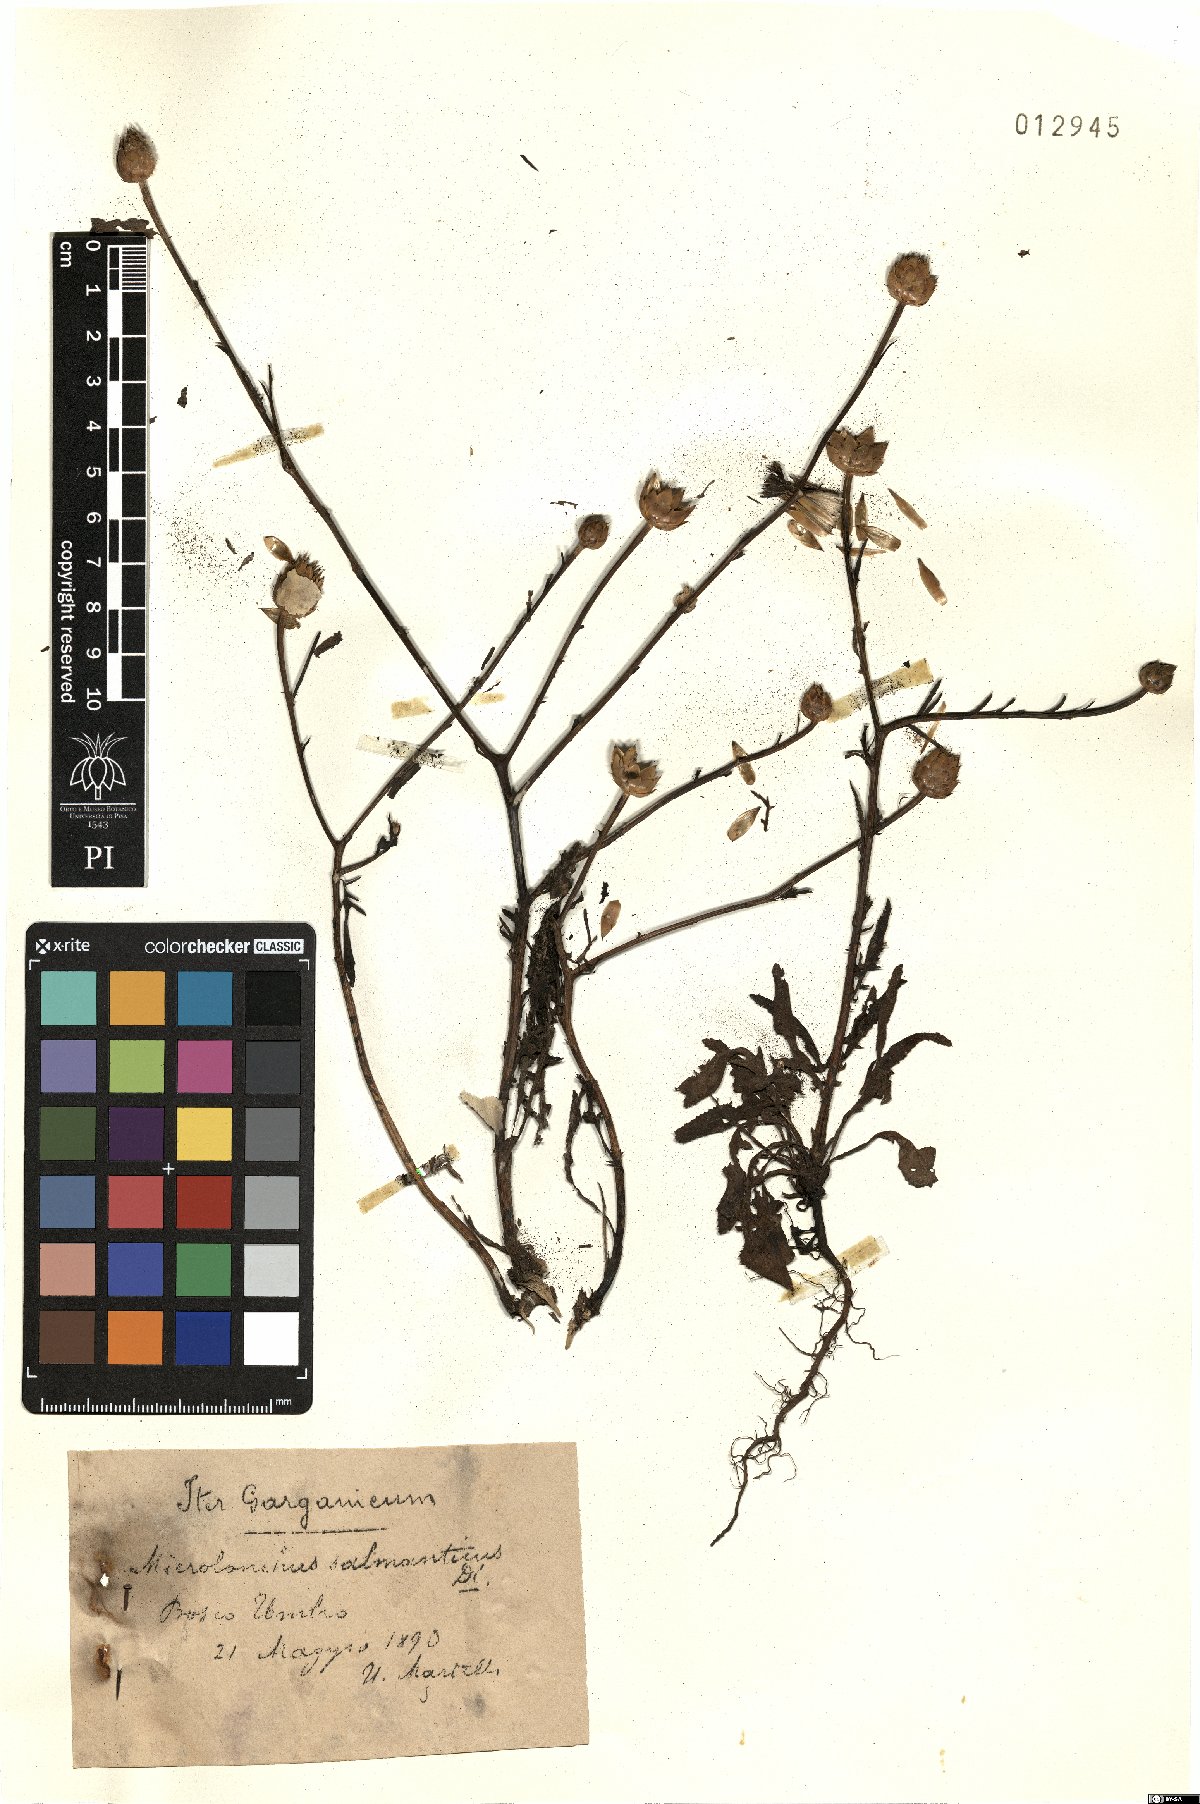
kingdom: Plantae
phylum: Tracheophyta
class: Magnoliopsida
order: Asterales
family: Asteraceae
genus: Mantisalca
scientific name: Mantisalca salmantica
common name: Dagger flower
